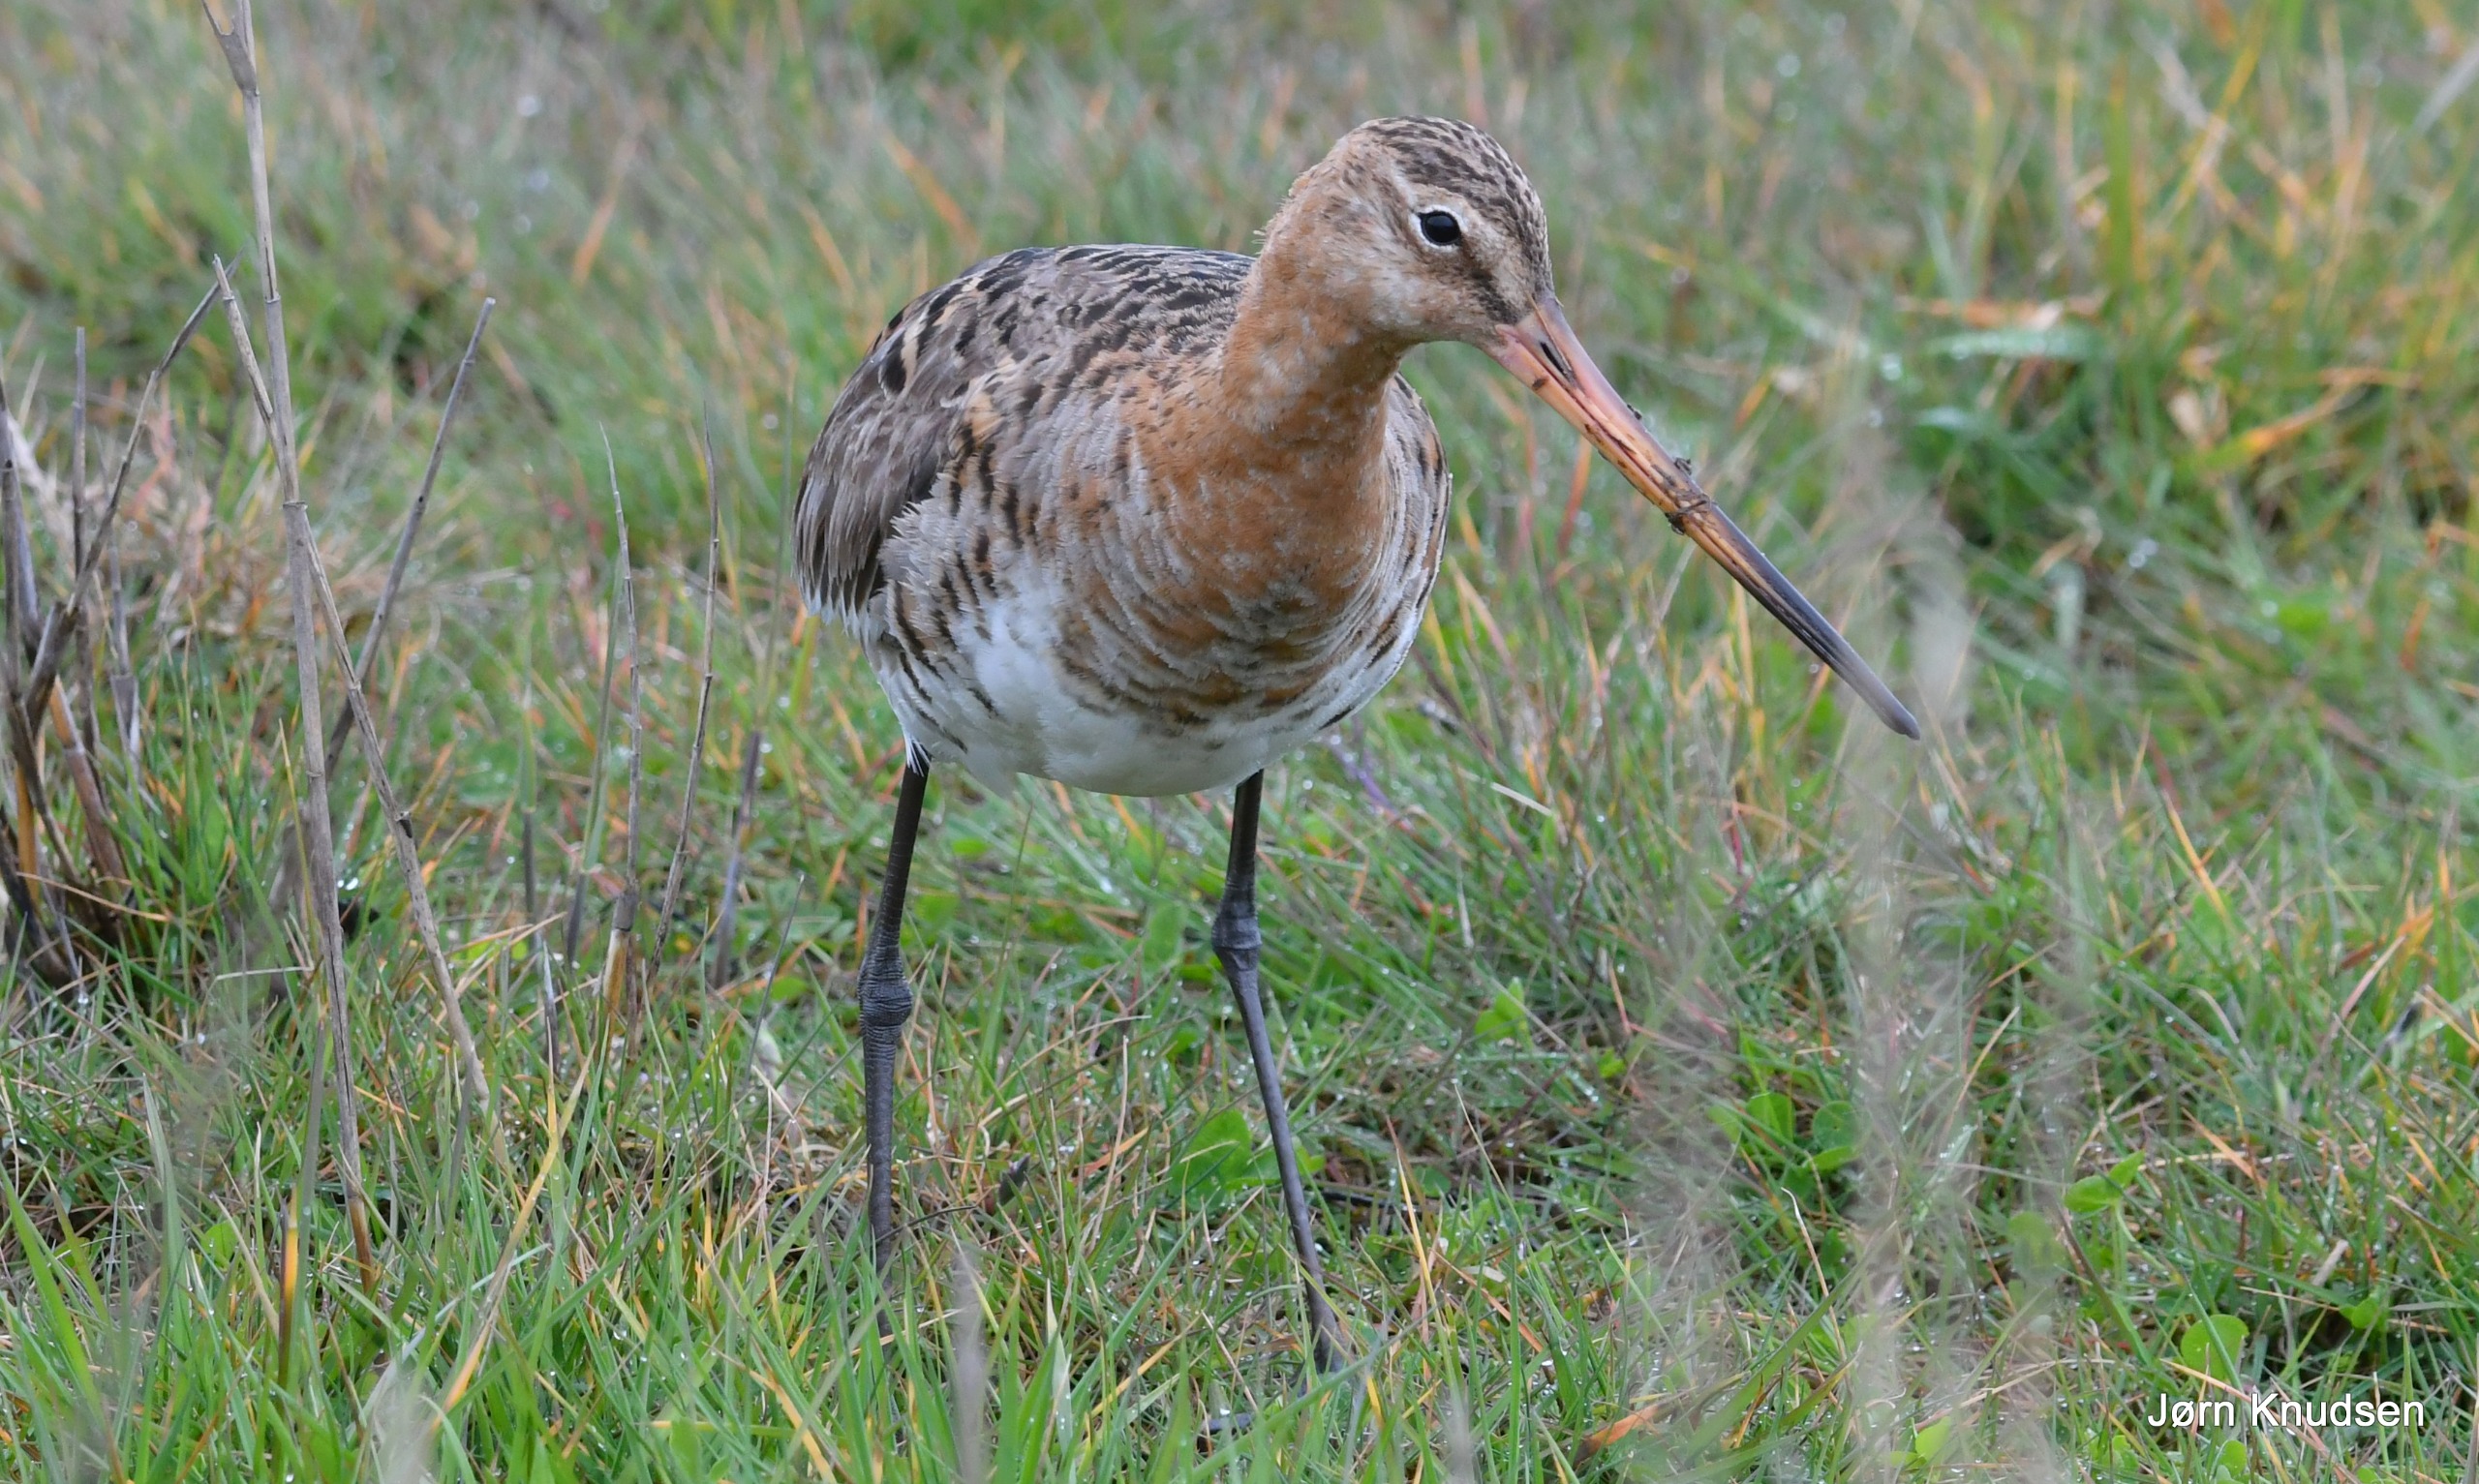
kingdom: Animalia
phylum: Chordata
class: Aves
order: Charadriiformes
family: Scolopacidae
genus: Limosa
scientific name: Limosa limosa
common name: Stor kobbersneppe
